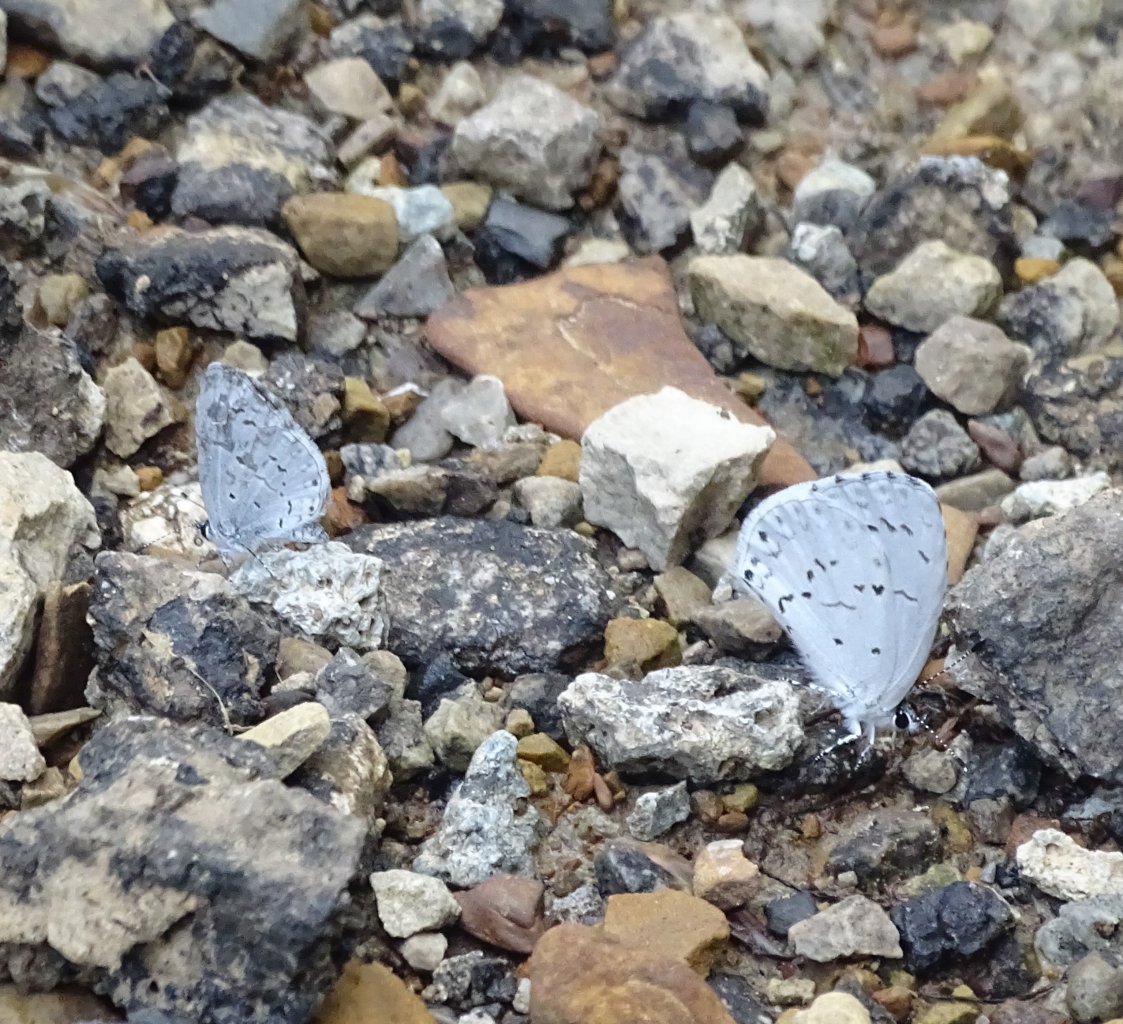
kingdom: Animalia
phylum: Arthropoda
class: Insecta
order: Lepidoptera
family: Lycaenidae
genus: Cyaniris
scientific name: Cyaniris neglecta
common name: Summer Azure
